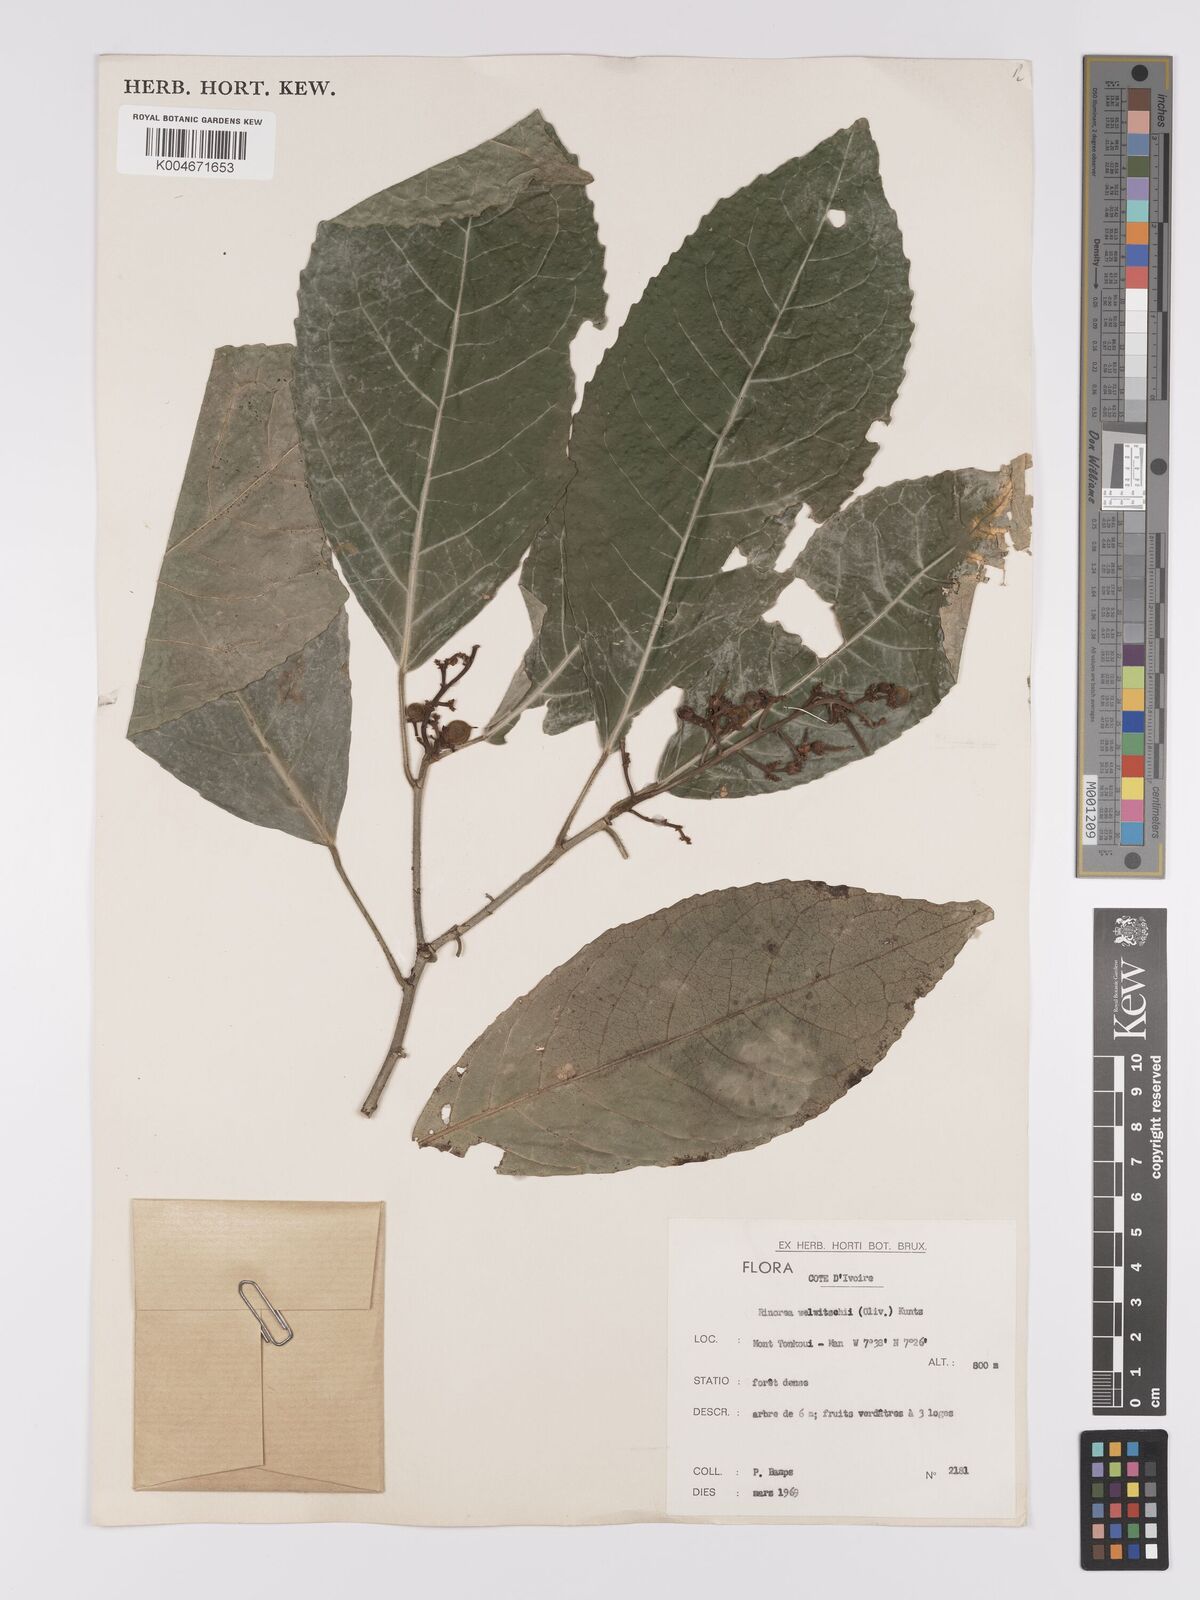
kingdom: Plantae
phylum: Tracheophyta
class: Magnoliopsida
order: Malpighiales
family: Violaceae
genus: Rinorea
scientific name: Rinorea welwitschii
